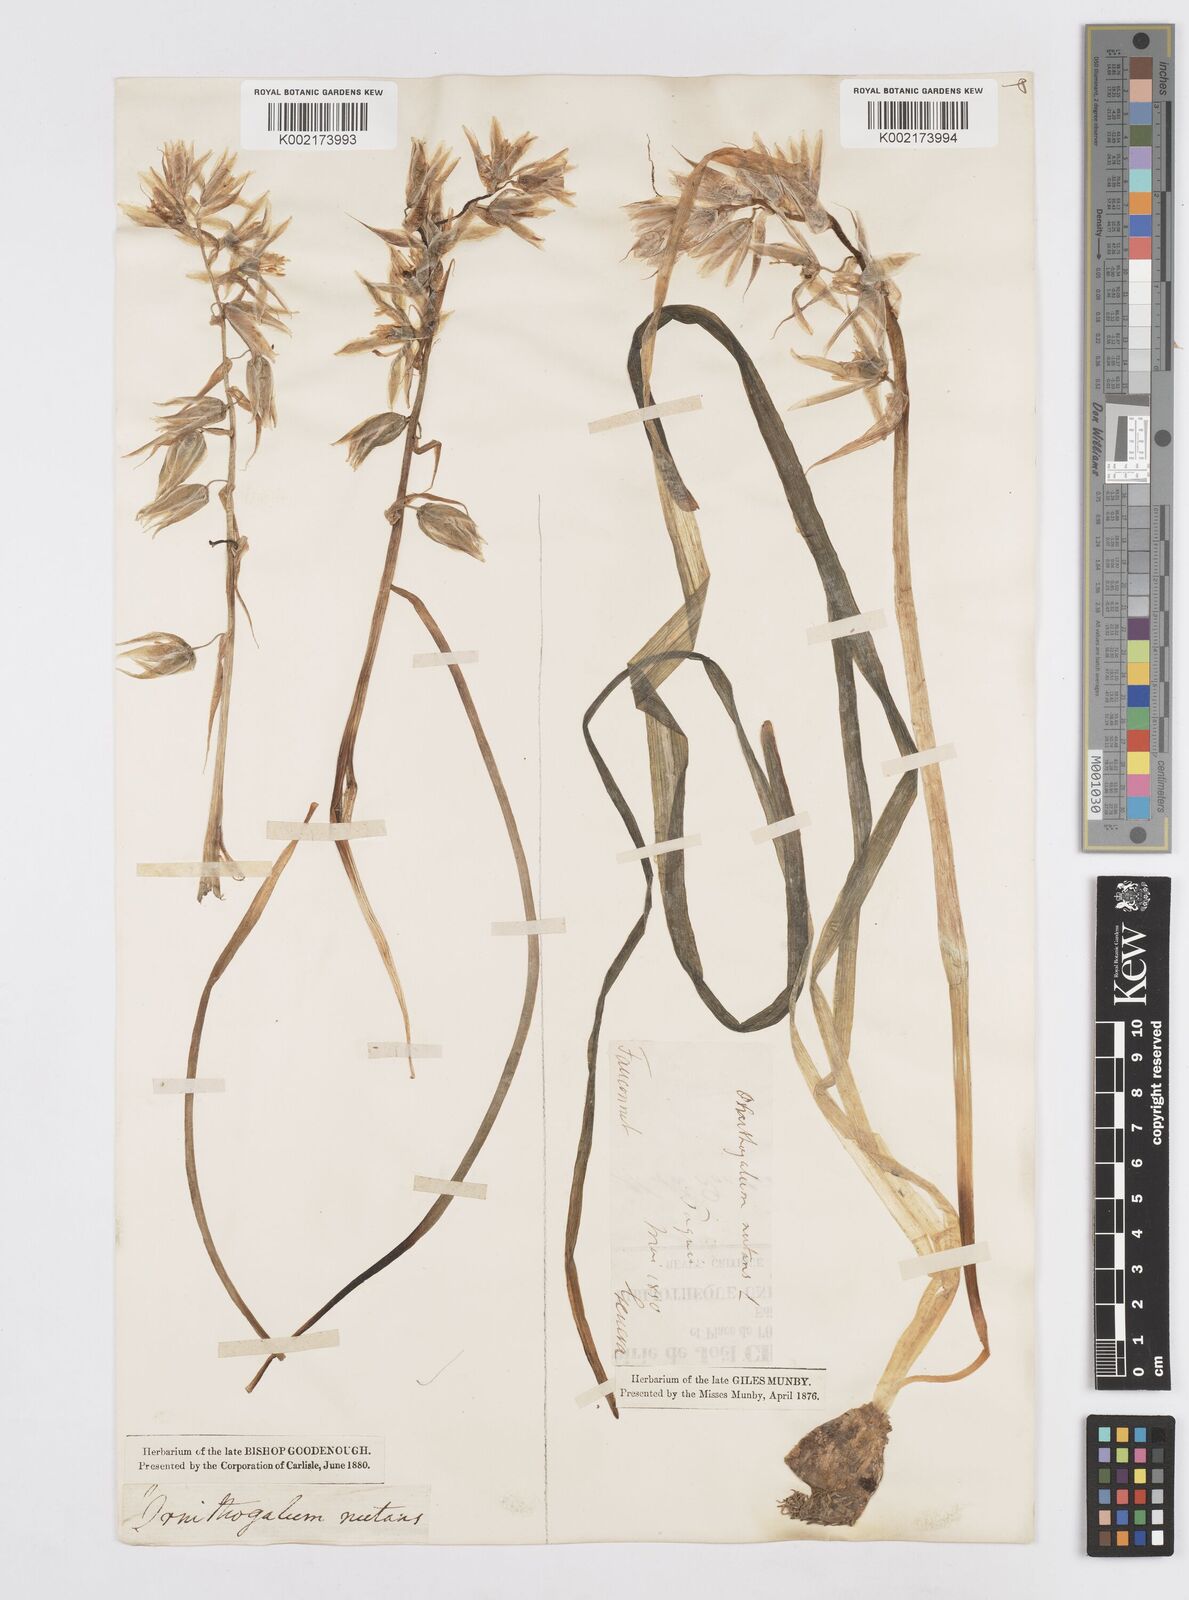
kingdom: Plantae
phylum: Tracheophyta
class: Liliopsida
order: Asparagales
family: Asparagaceae
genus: Ornithogalum
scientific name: Ornithogalum nutans
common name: Drooping star-of-bethlehem
